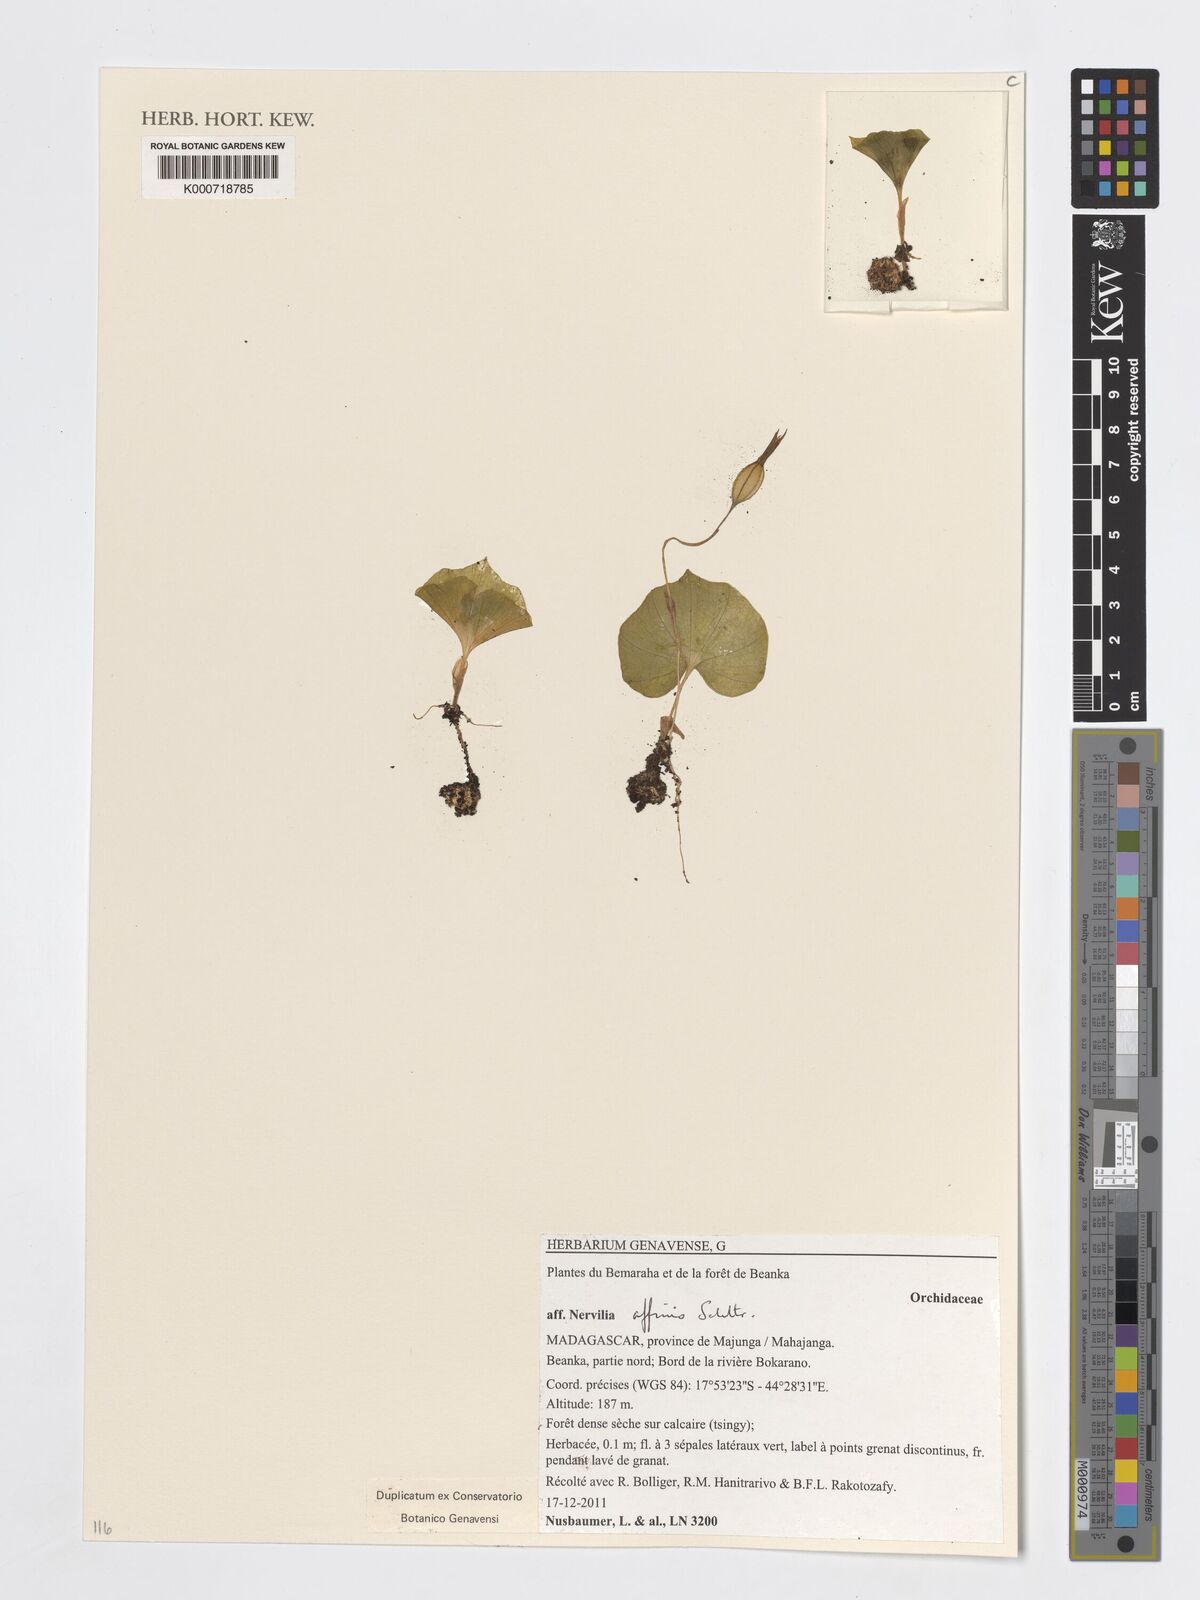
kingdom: Plantae
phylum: Tracheophyta
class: Liliopsida
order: Asparagales
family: Orchidaceae
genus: Nervilia
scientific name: Nervilia affinis
